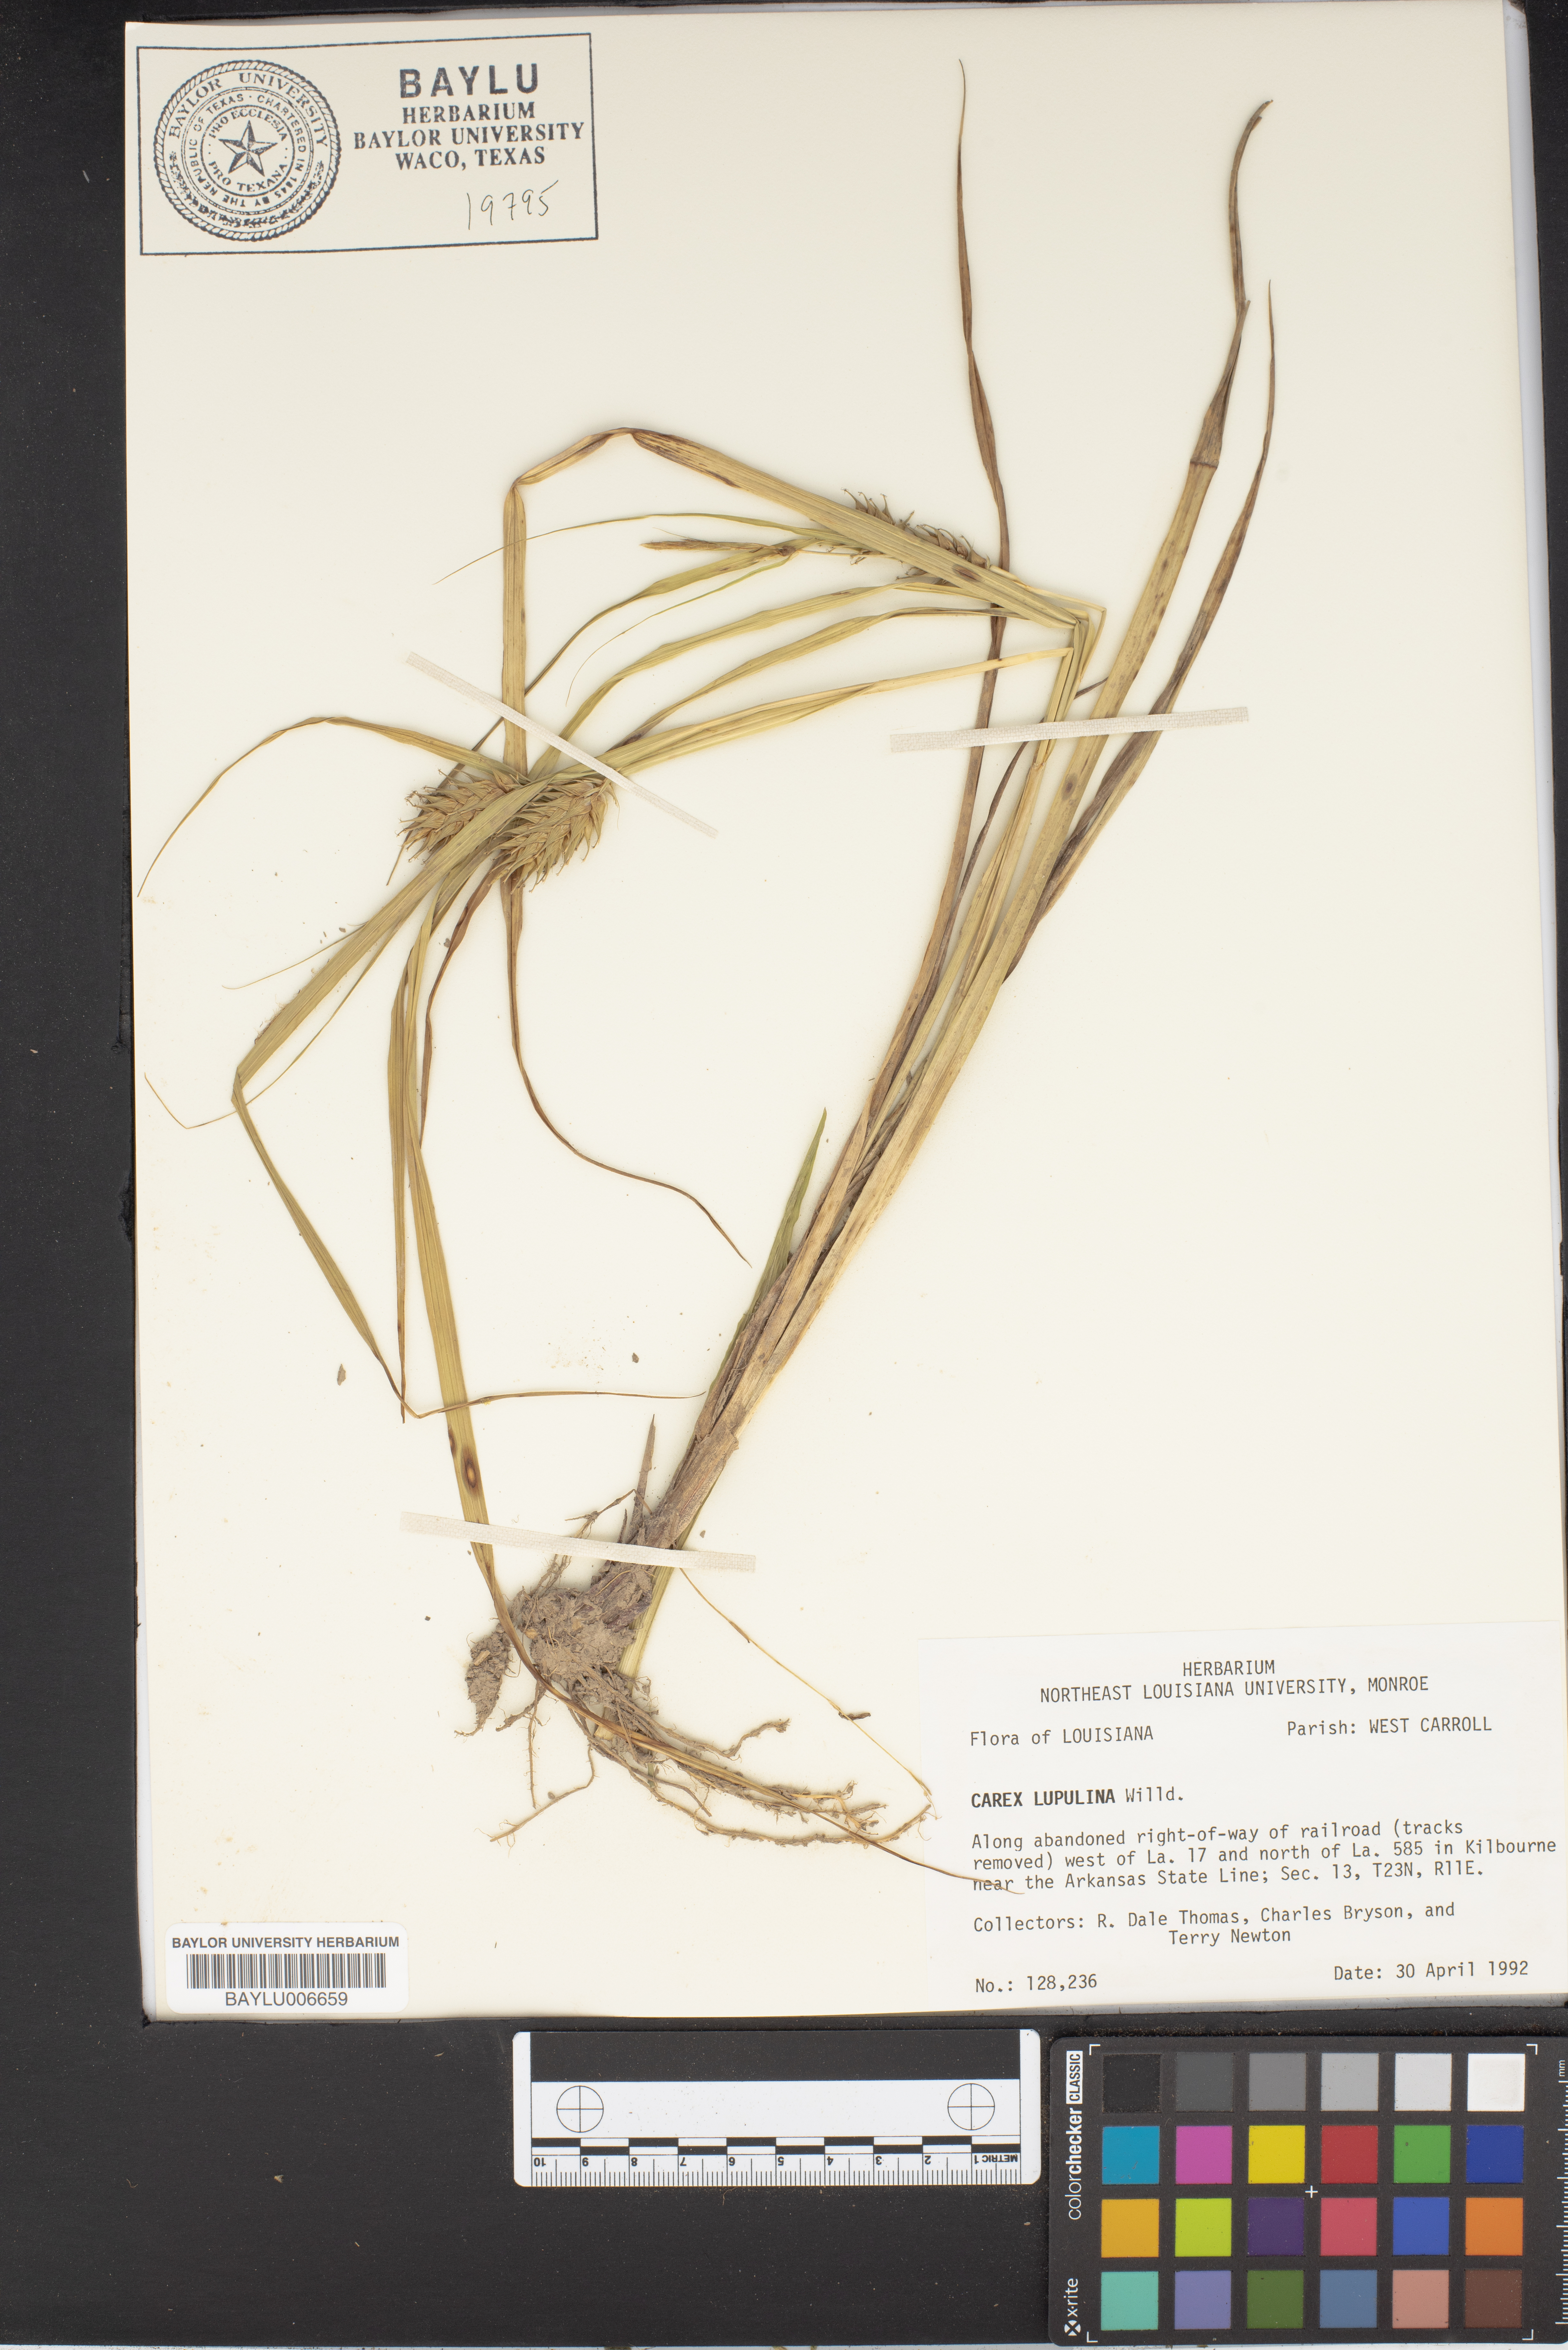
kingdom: Plantae
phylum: Tracheophyta
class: Liliopsida
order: Poales
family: Cyperaceae
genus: Carex
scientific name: Carex lupulina
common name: Hop sedge
